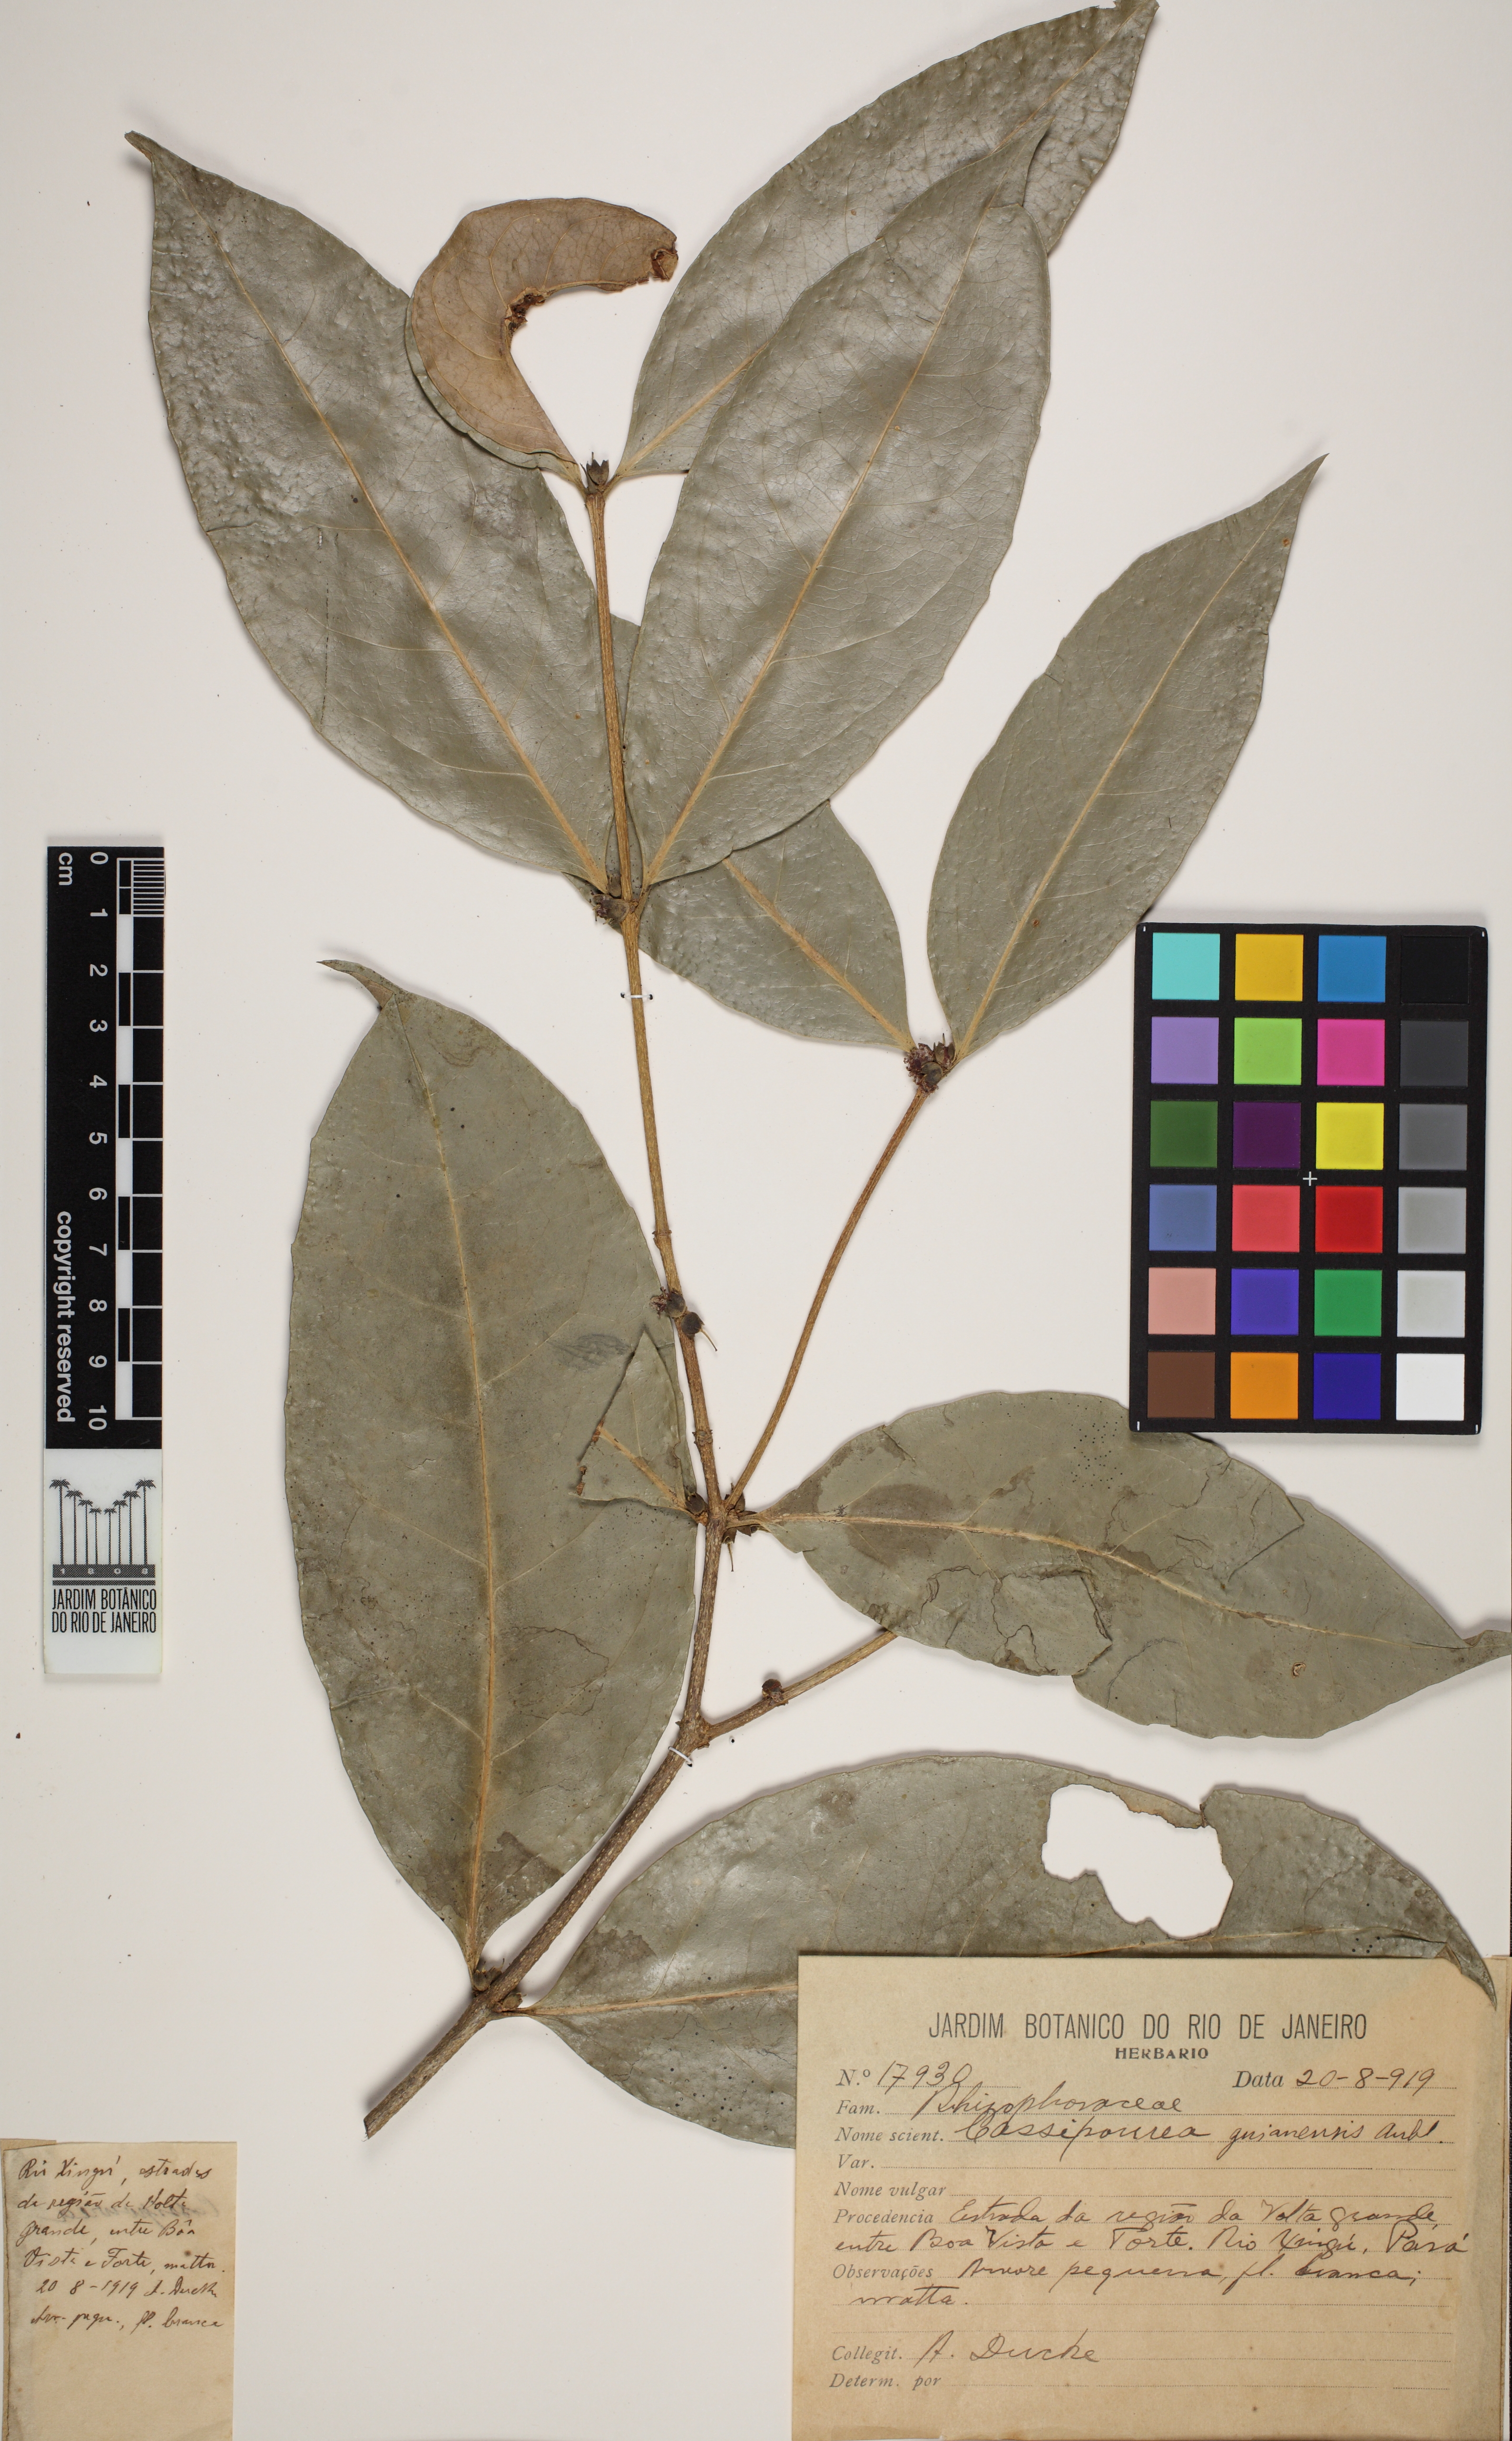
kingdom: Plantae
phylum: Tracheophyta
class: Magnoliopsida
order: Malpighiales
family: Rhizophoraceae
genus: Cassipourea
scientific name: Cassipourea guianensis
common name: Bastard waterwood
